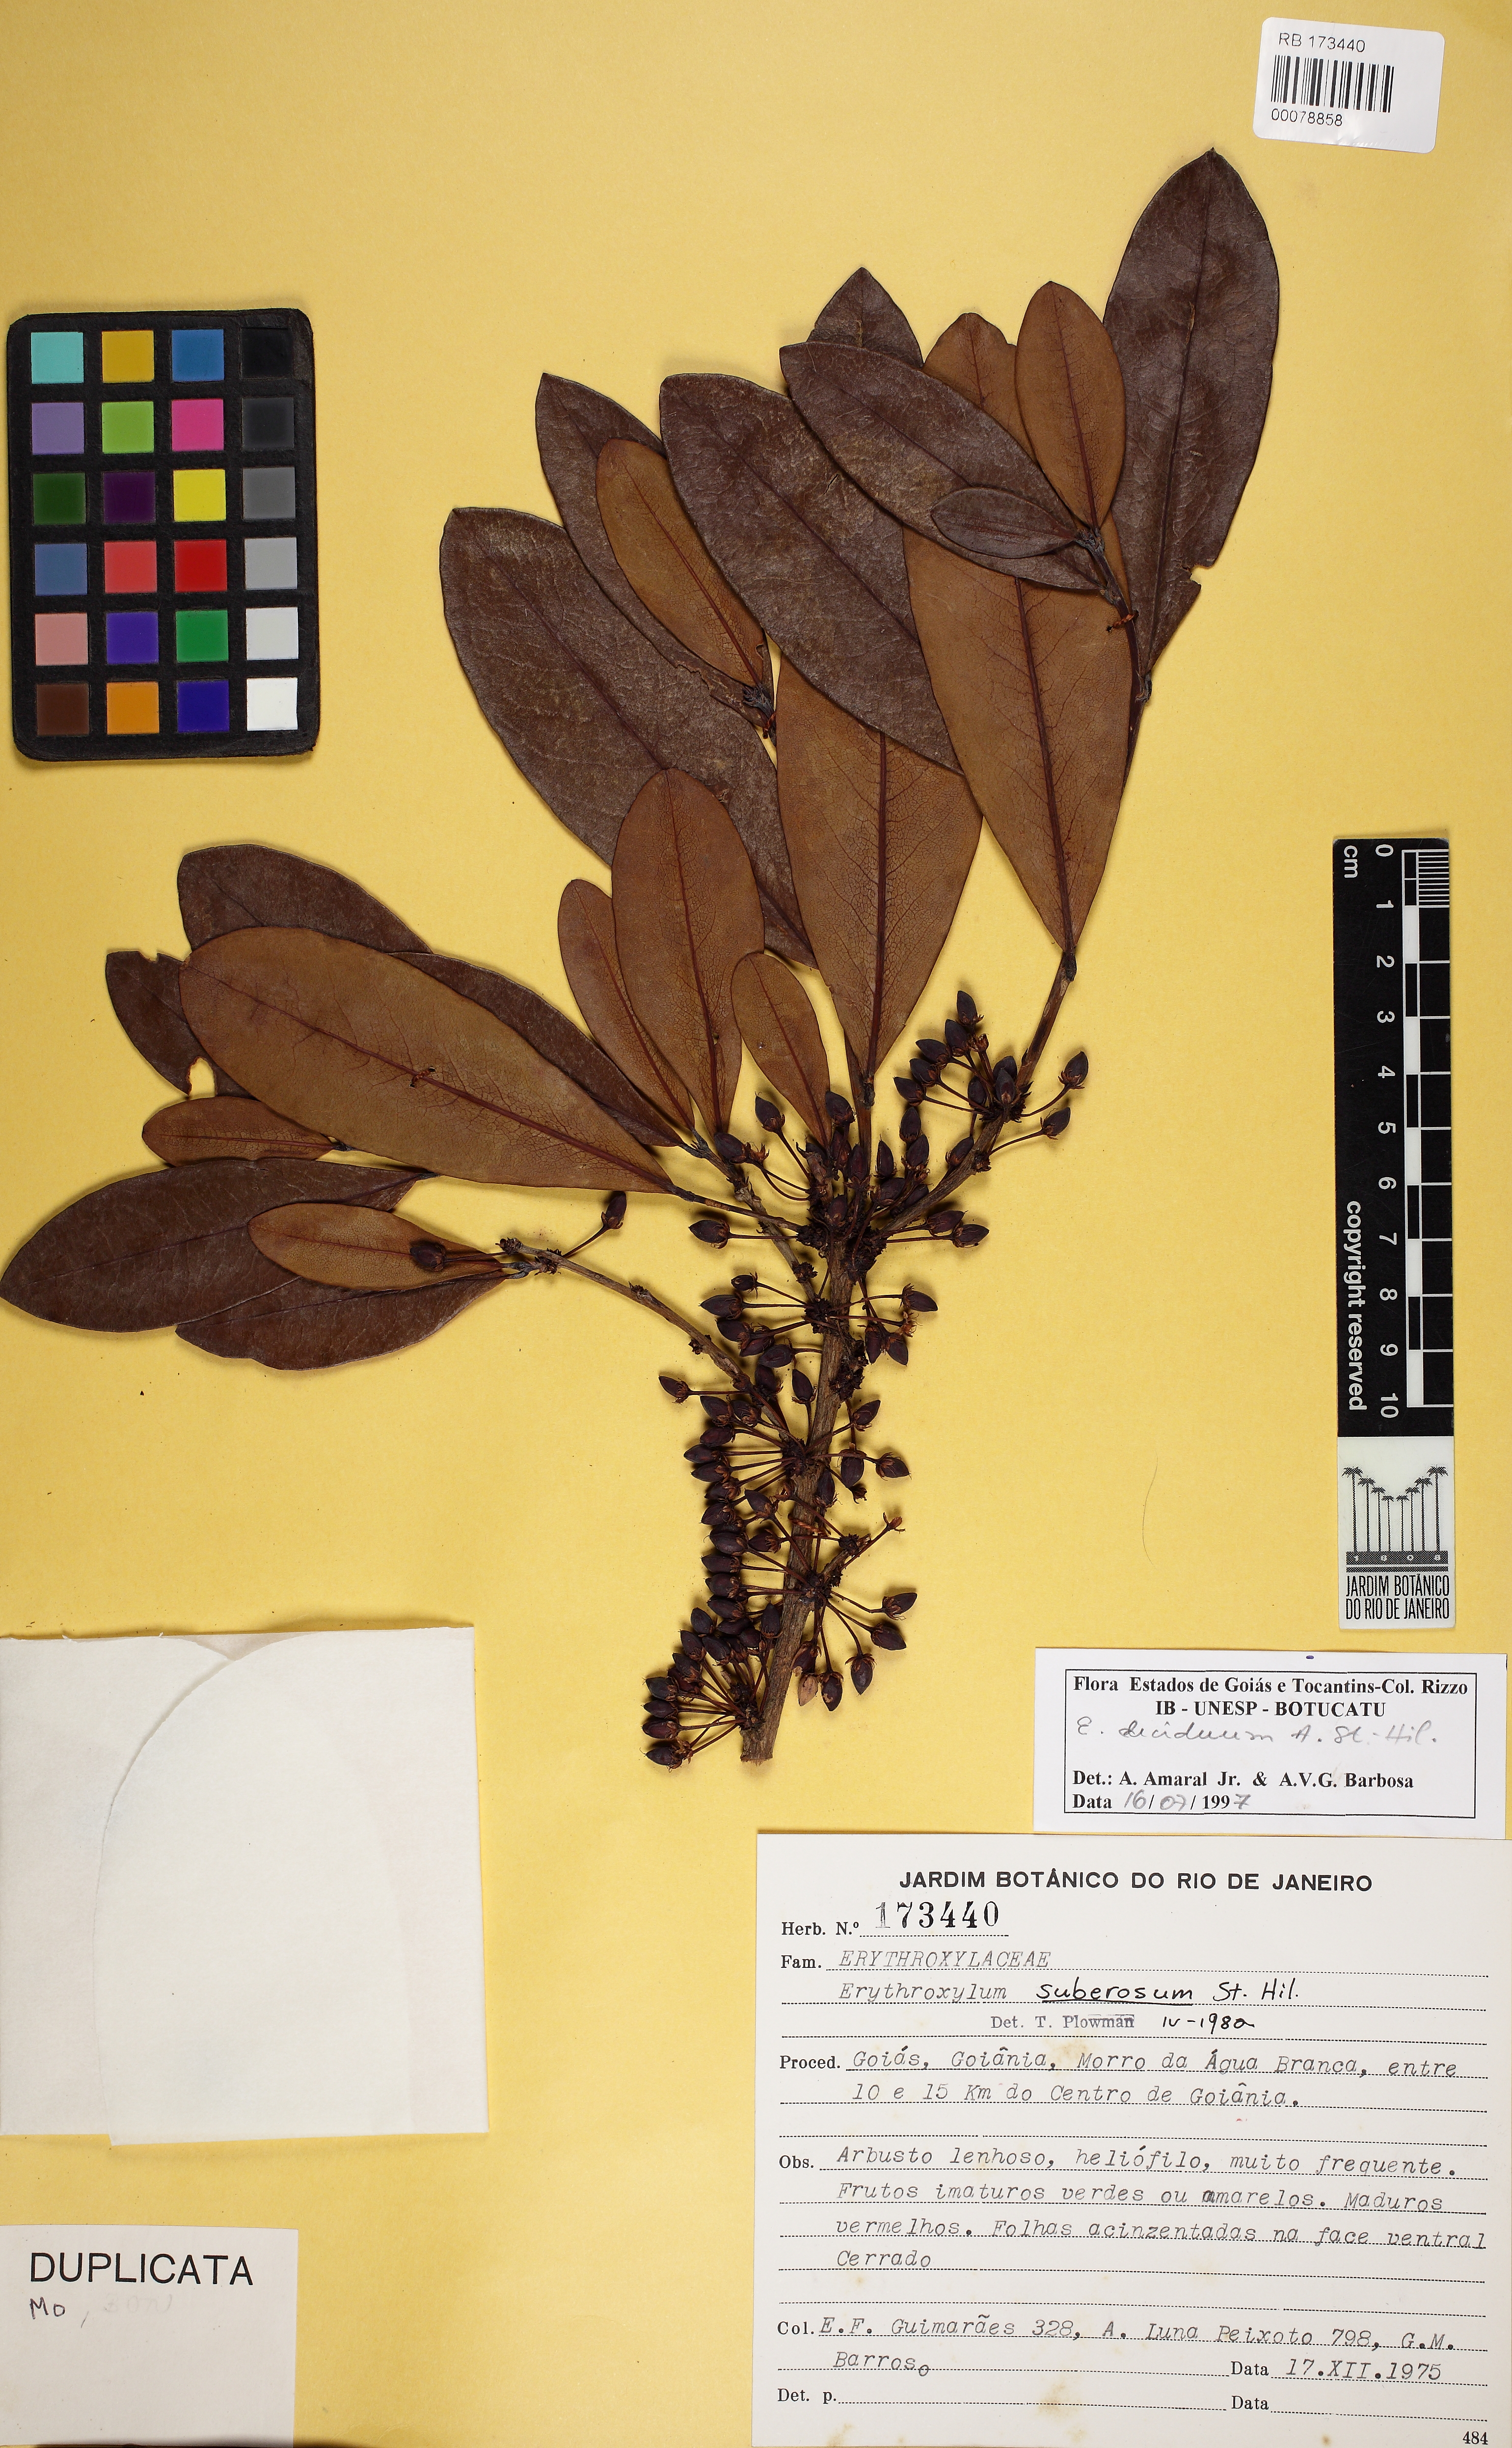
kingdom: Plantae
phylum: Tracheophyta
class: Magnoliopsida
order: Malpighiales
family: Erythroxylaceae
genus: Erythroxylum
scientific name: Erythroxylum deciduum
